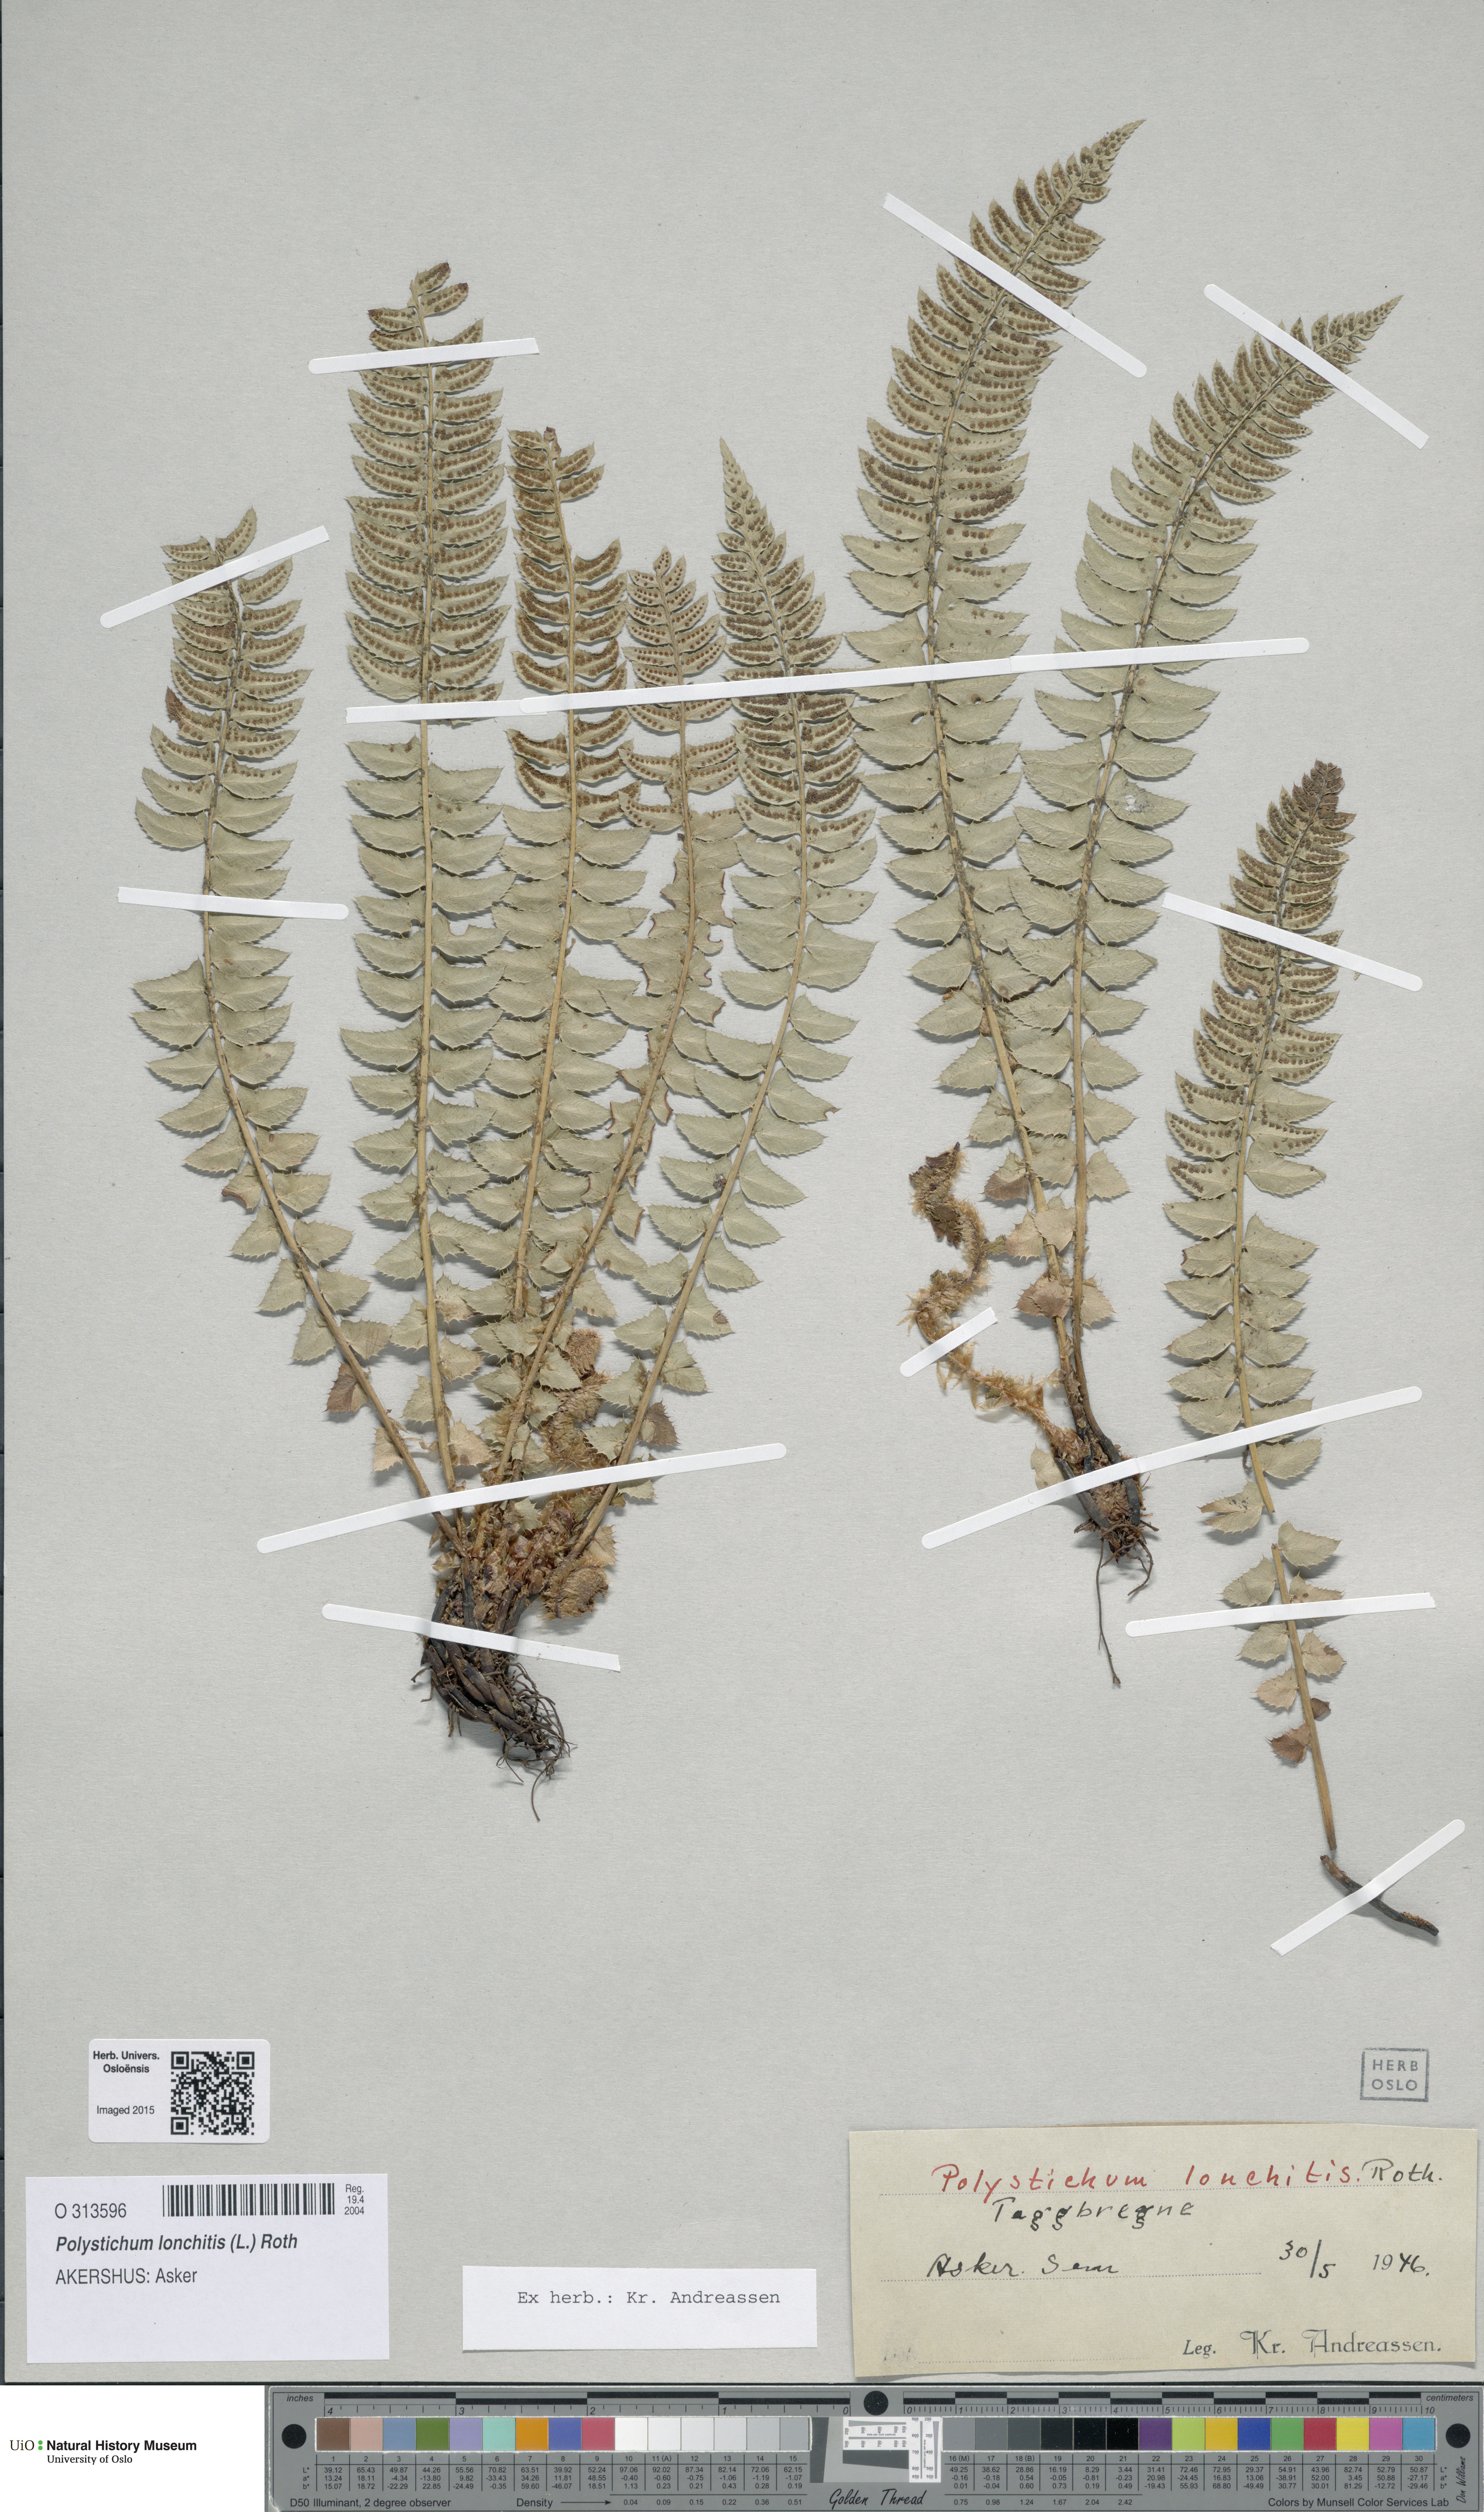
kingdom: Plantae
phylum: Tracheophyta
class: Polypodiopsida
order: Polypodiales
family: Dryopteridaceae
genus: Polystichum
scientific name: Polystichum lonchitis
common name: Holly fern
